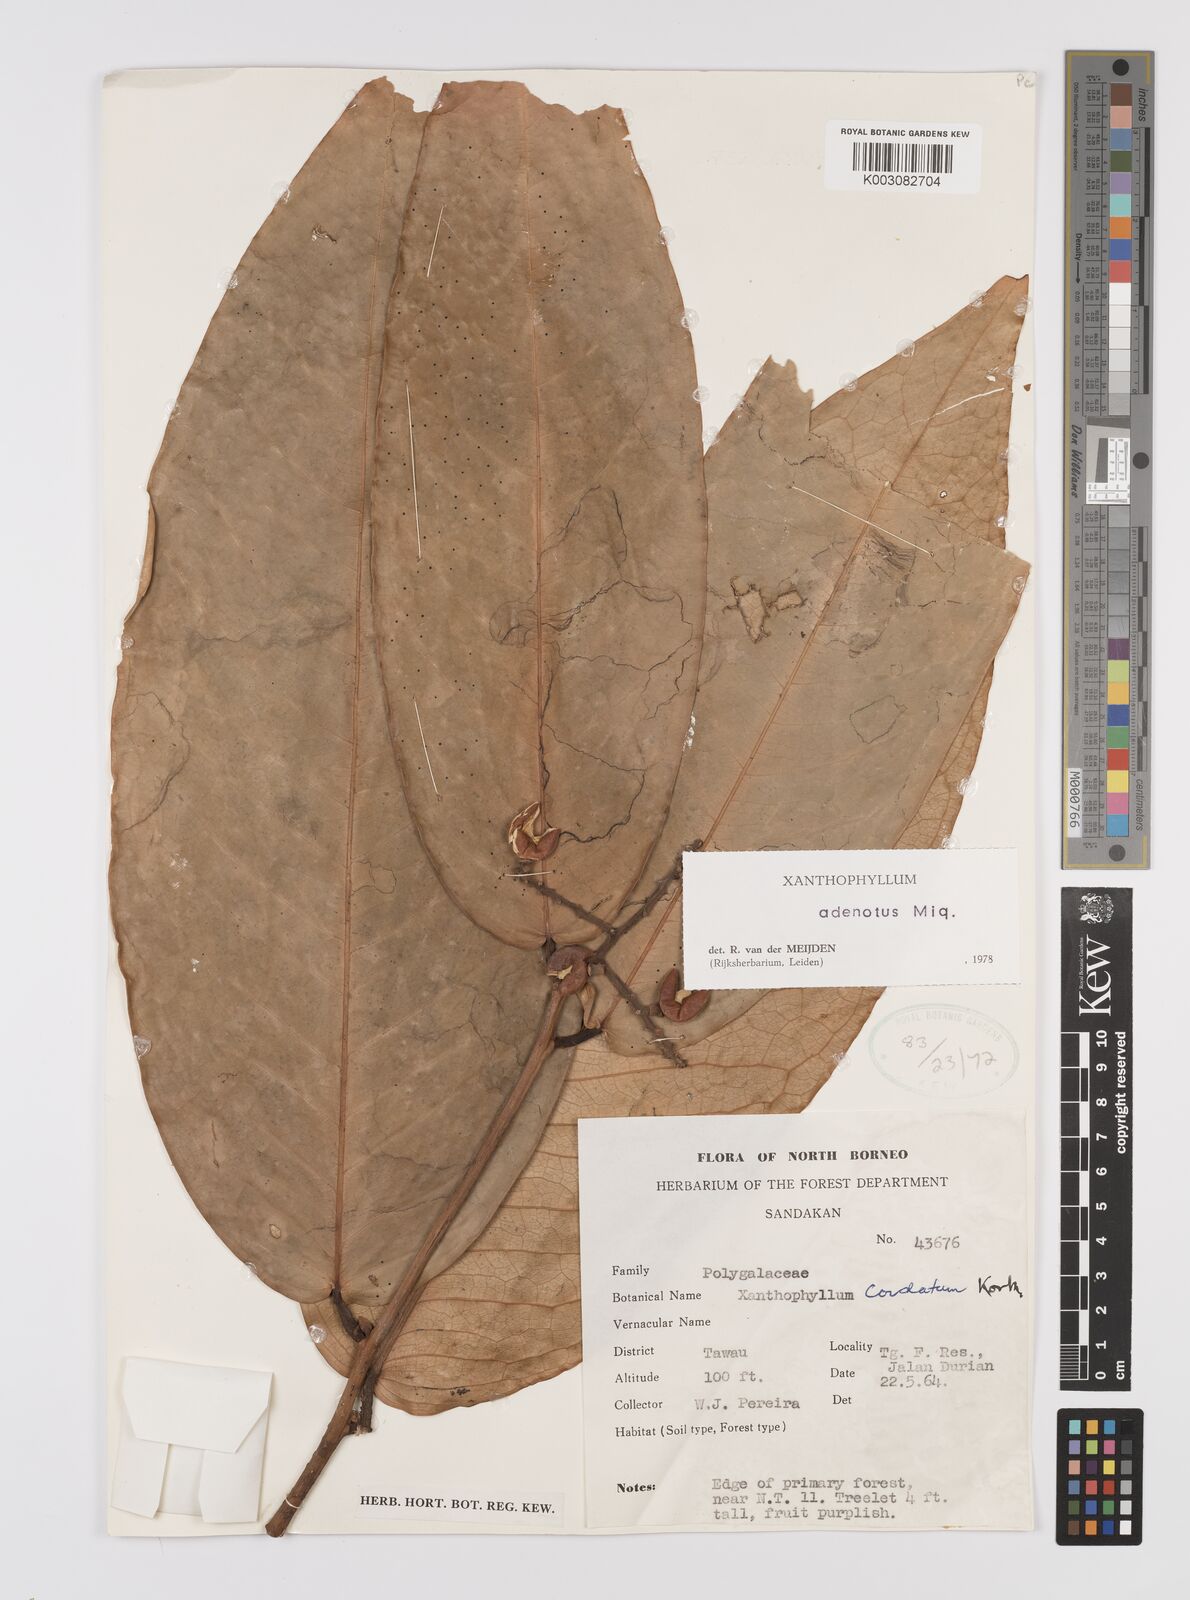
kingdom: Plantae
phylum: Tracheophyta
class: Magnoliopsida
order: Fabales
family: Polygalaceae
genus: Xanthophyllum
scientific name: Xanthophyllum adenotus
